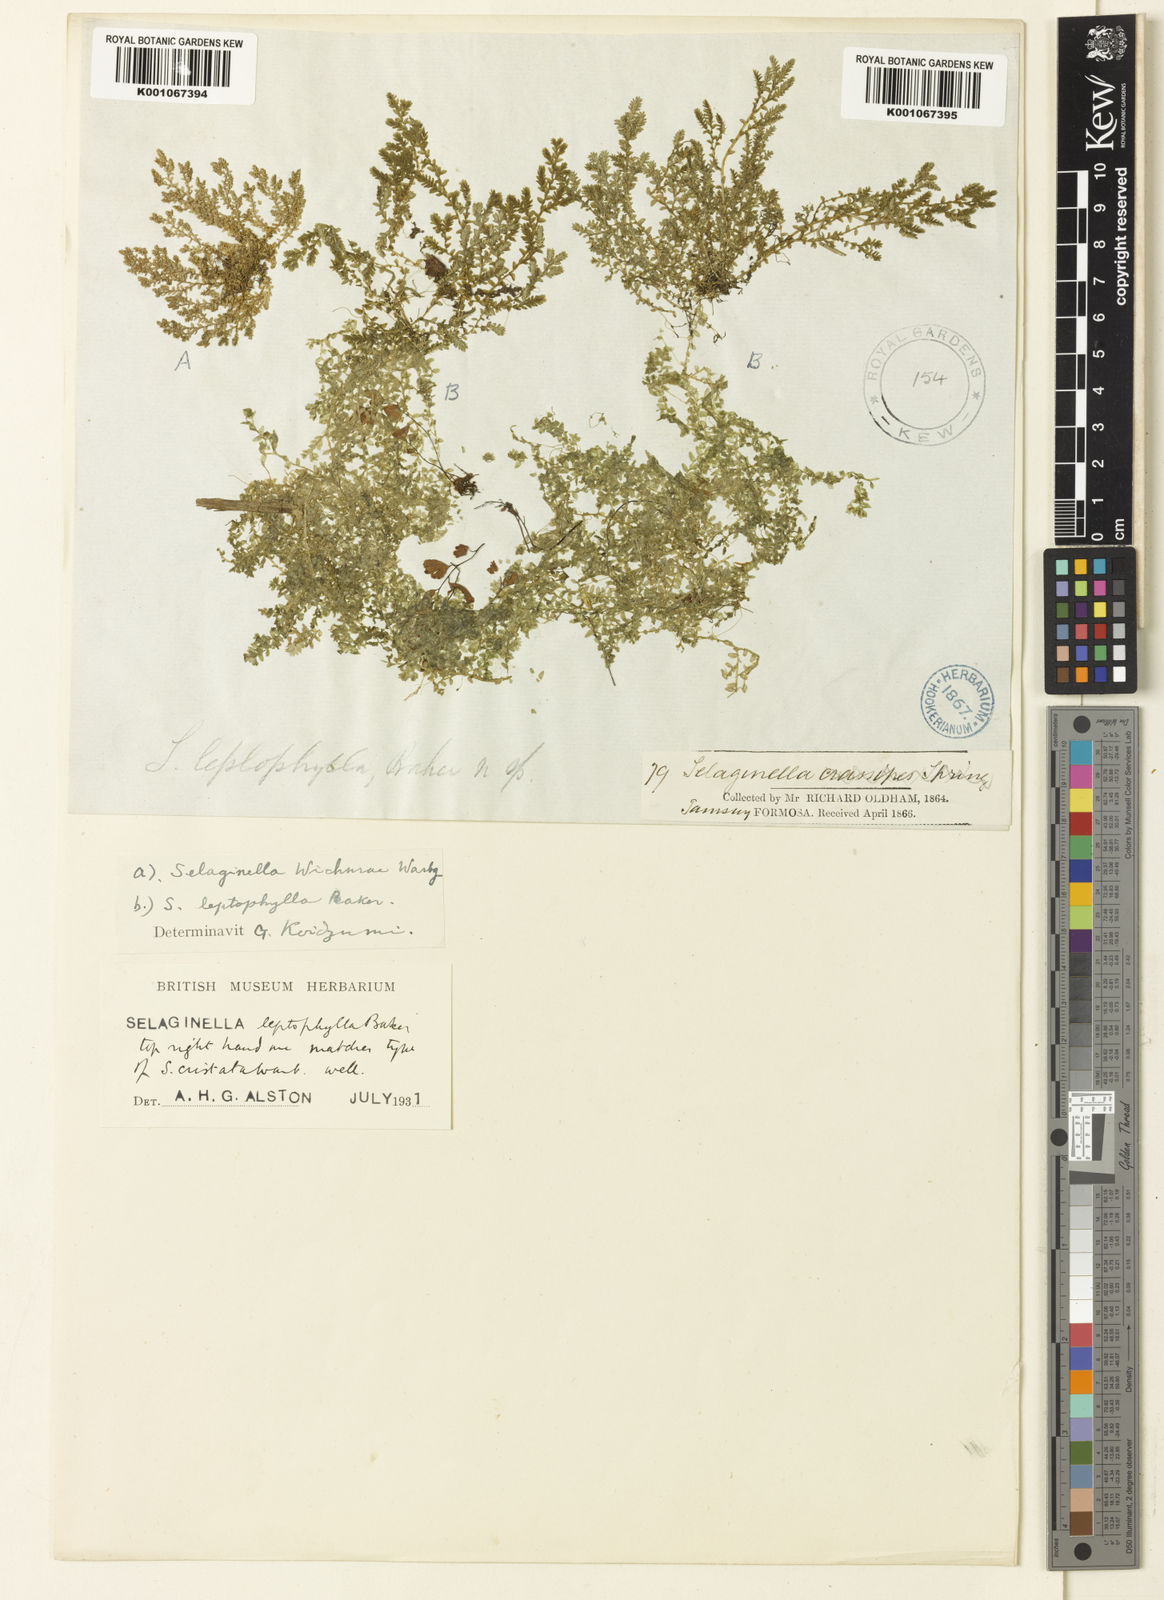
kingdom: Plantae
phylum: Tracheophyta
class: Lycopodiopsida
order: Selaginellales
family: Selaginellaceae
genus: Selaginella
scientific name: Selaginella leptophylla
